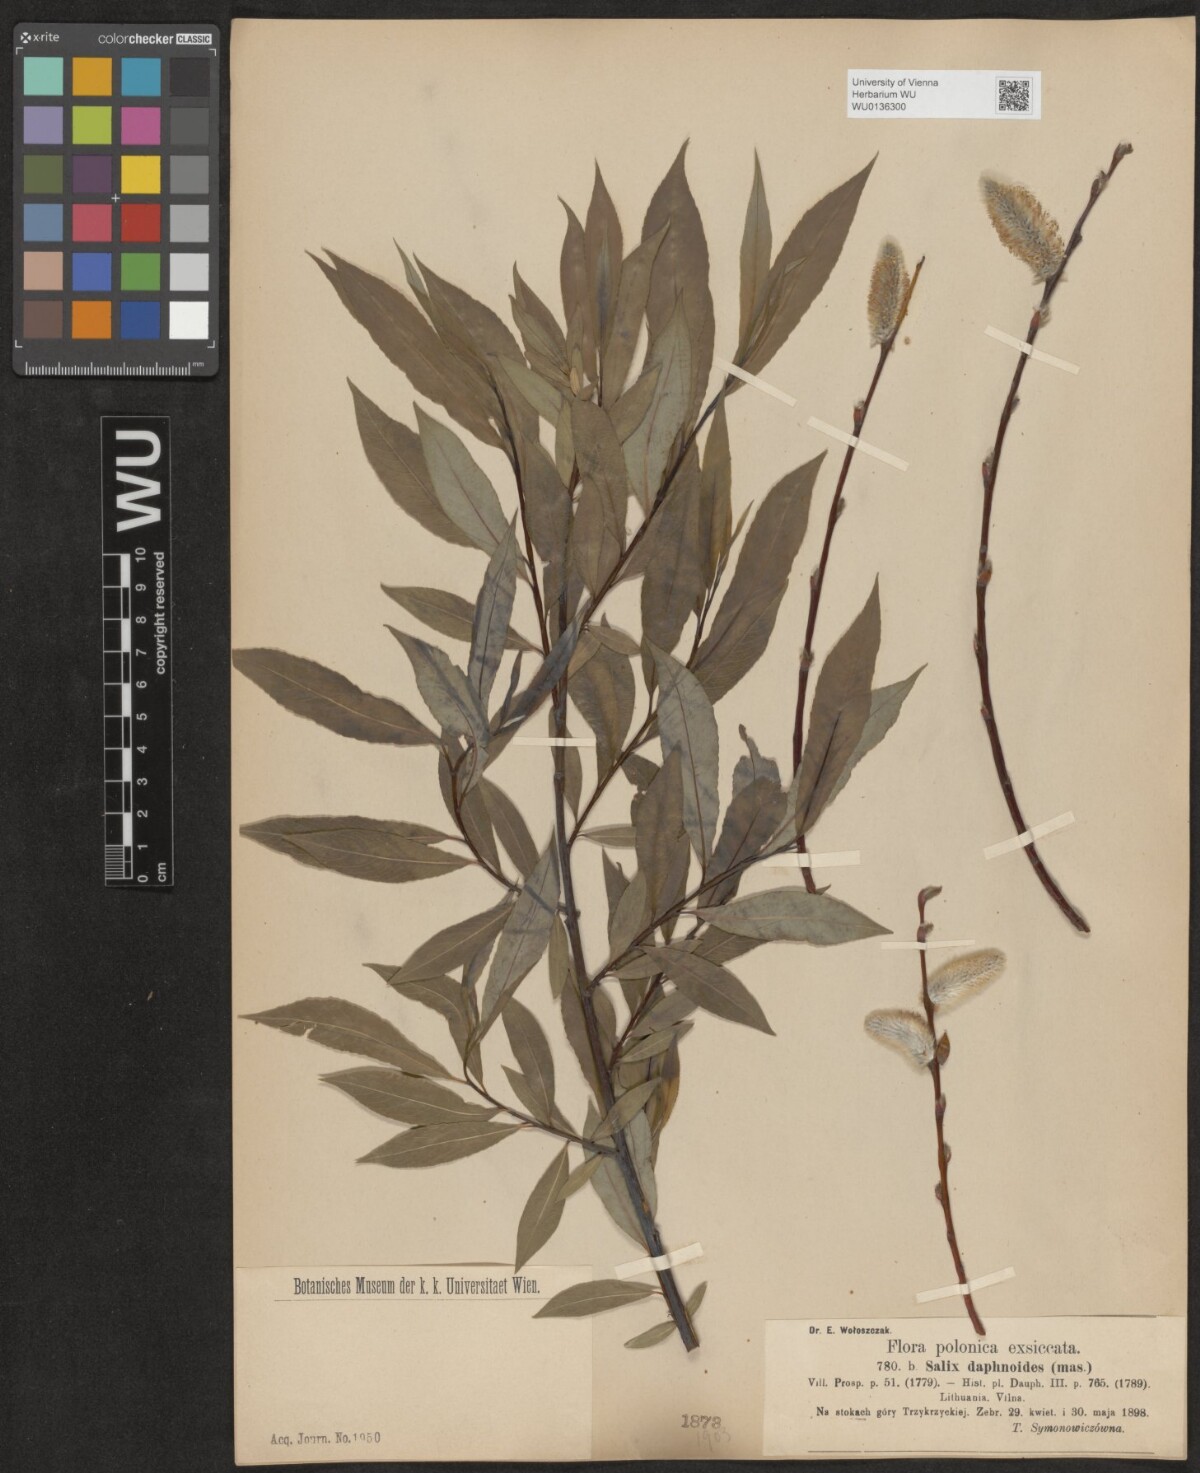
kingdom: Plantae
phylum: Tracheophyta
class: Magnoliopsida
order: Malpighiales
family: Salicaceae
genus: Salix
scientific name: Salix daphnoides
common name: European violet-willow
